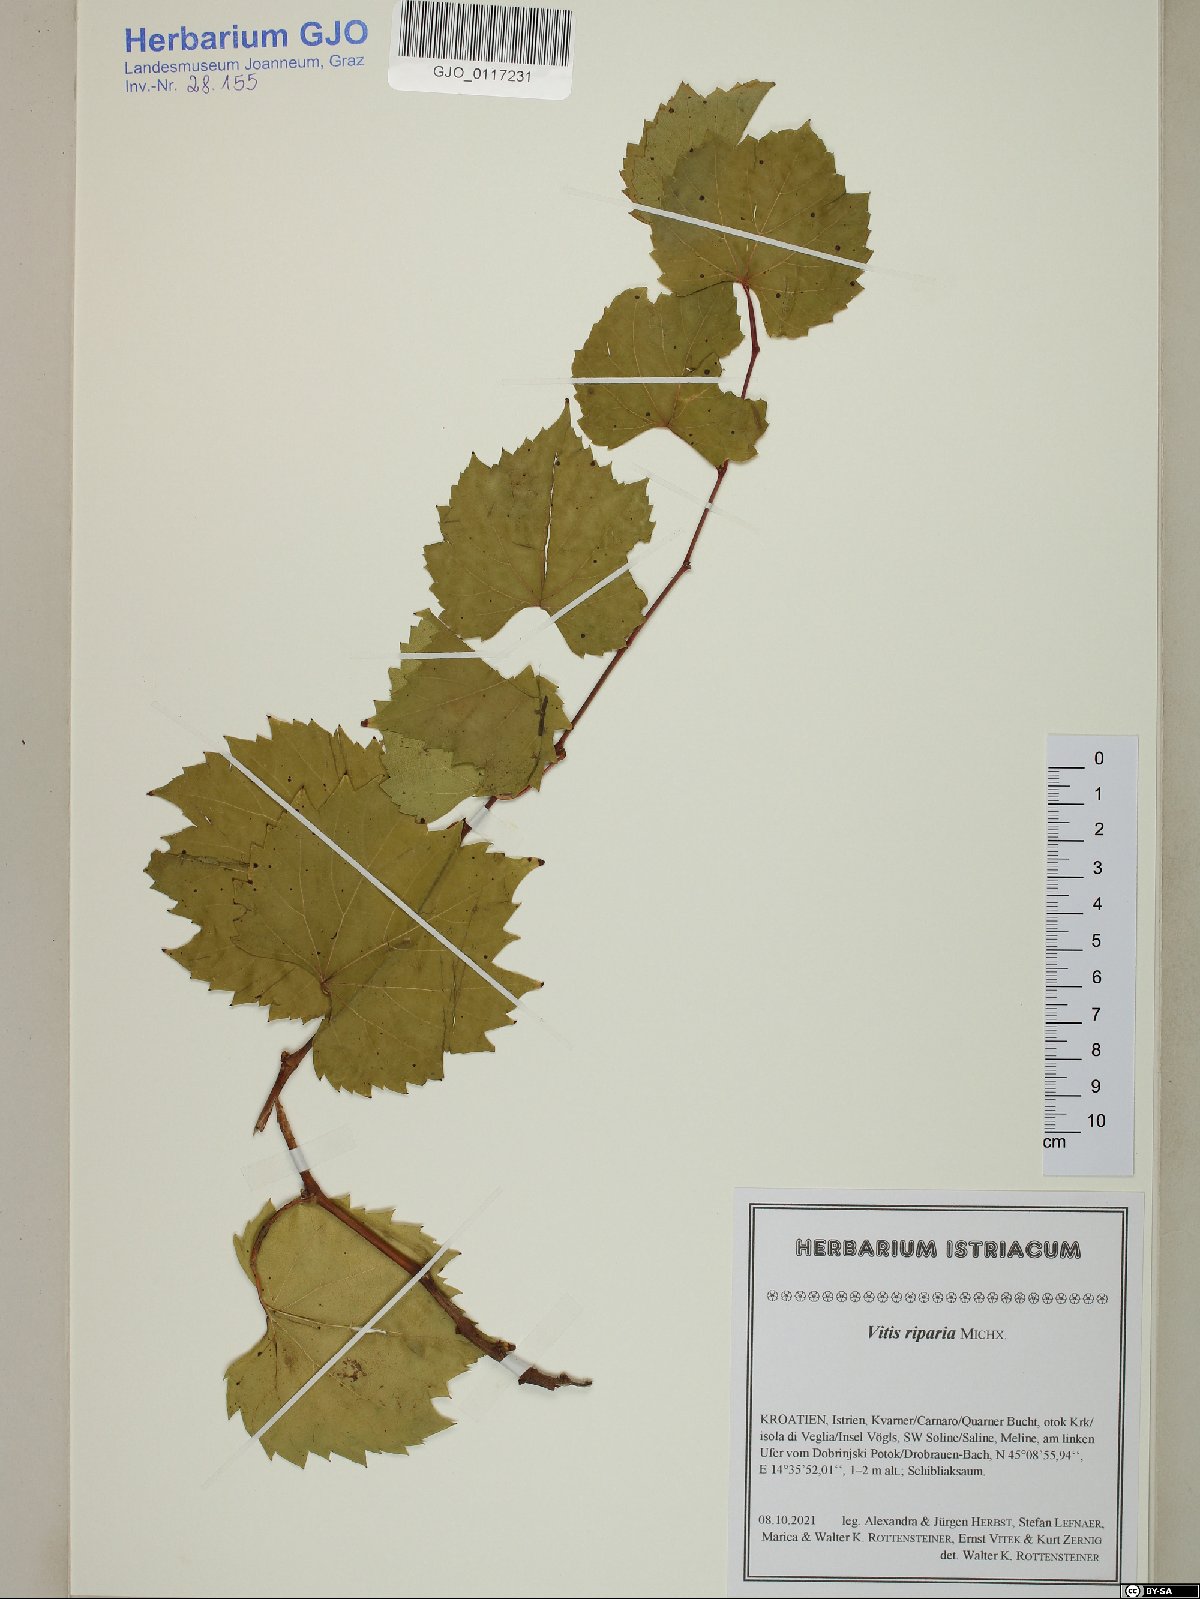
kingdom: Plantae
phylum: Tracheophyta
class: Magnoliopsida
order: Vitales
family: Vitaceae
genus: Vitis
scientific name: Vitis riparia
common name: Frost grape
